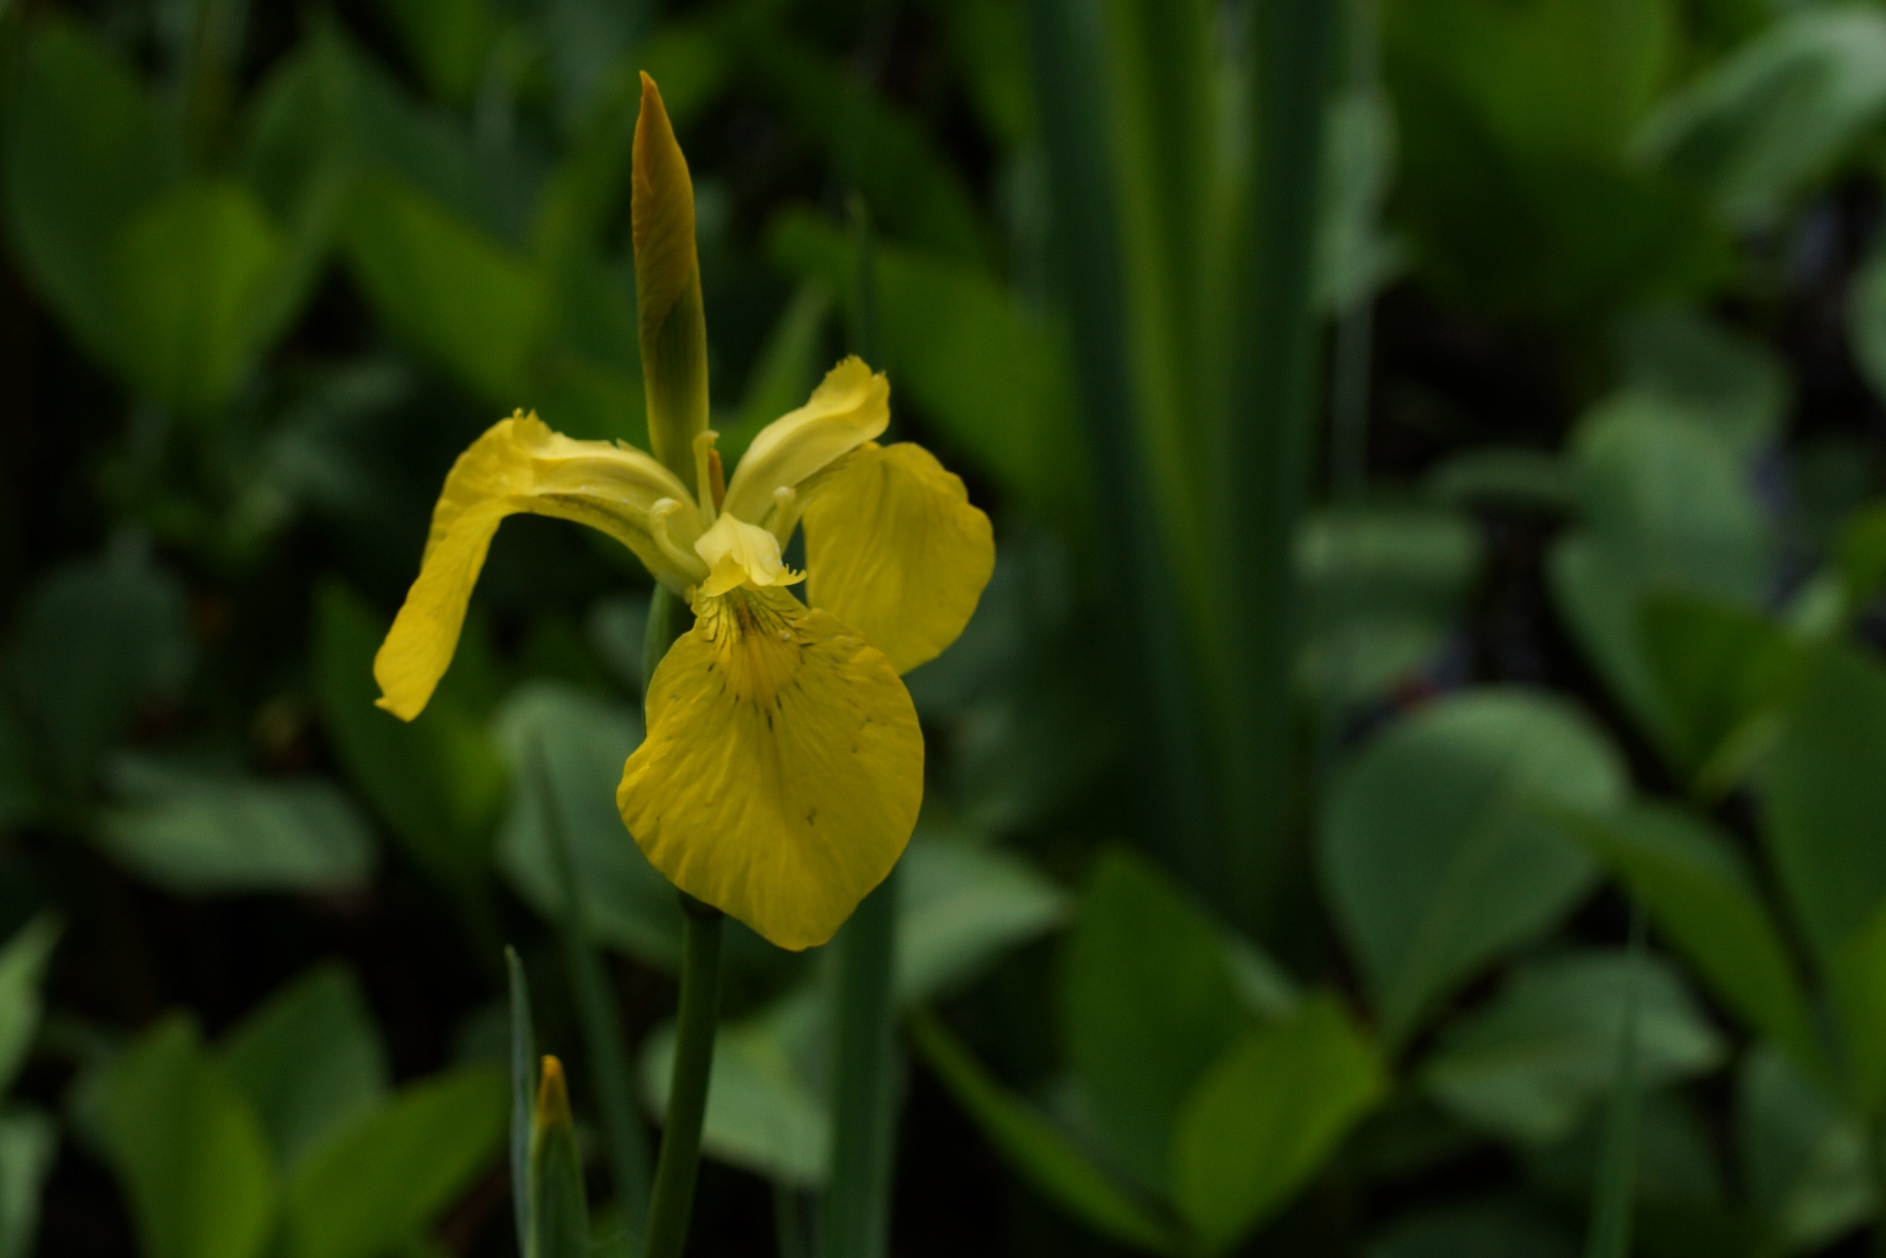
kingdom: Plantae
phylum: Tracheophyta
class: Liliopsida
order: Asparagales
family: Iridaceae
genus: Iris
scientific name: Iris pseudacorus
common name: Gul iris
